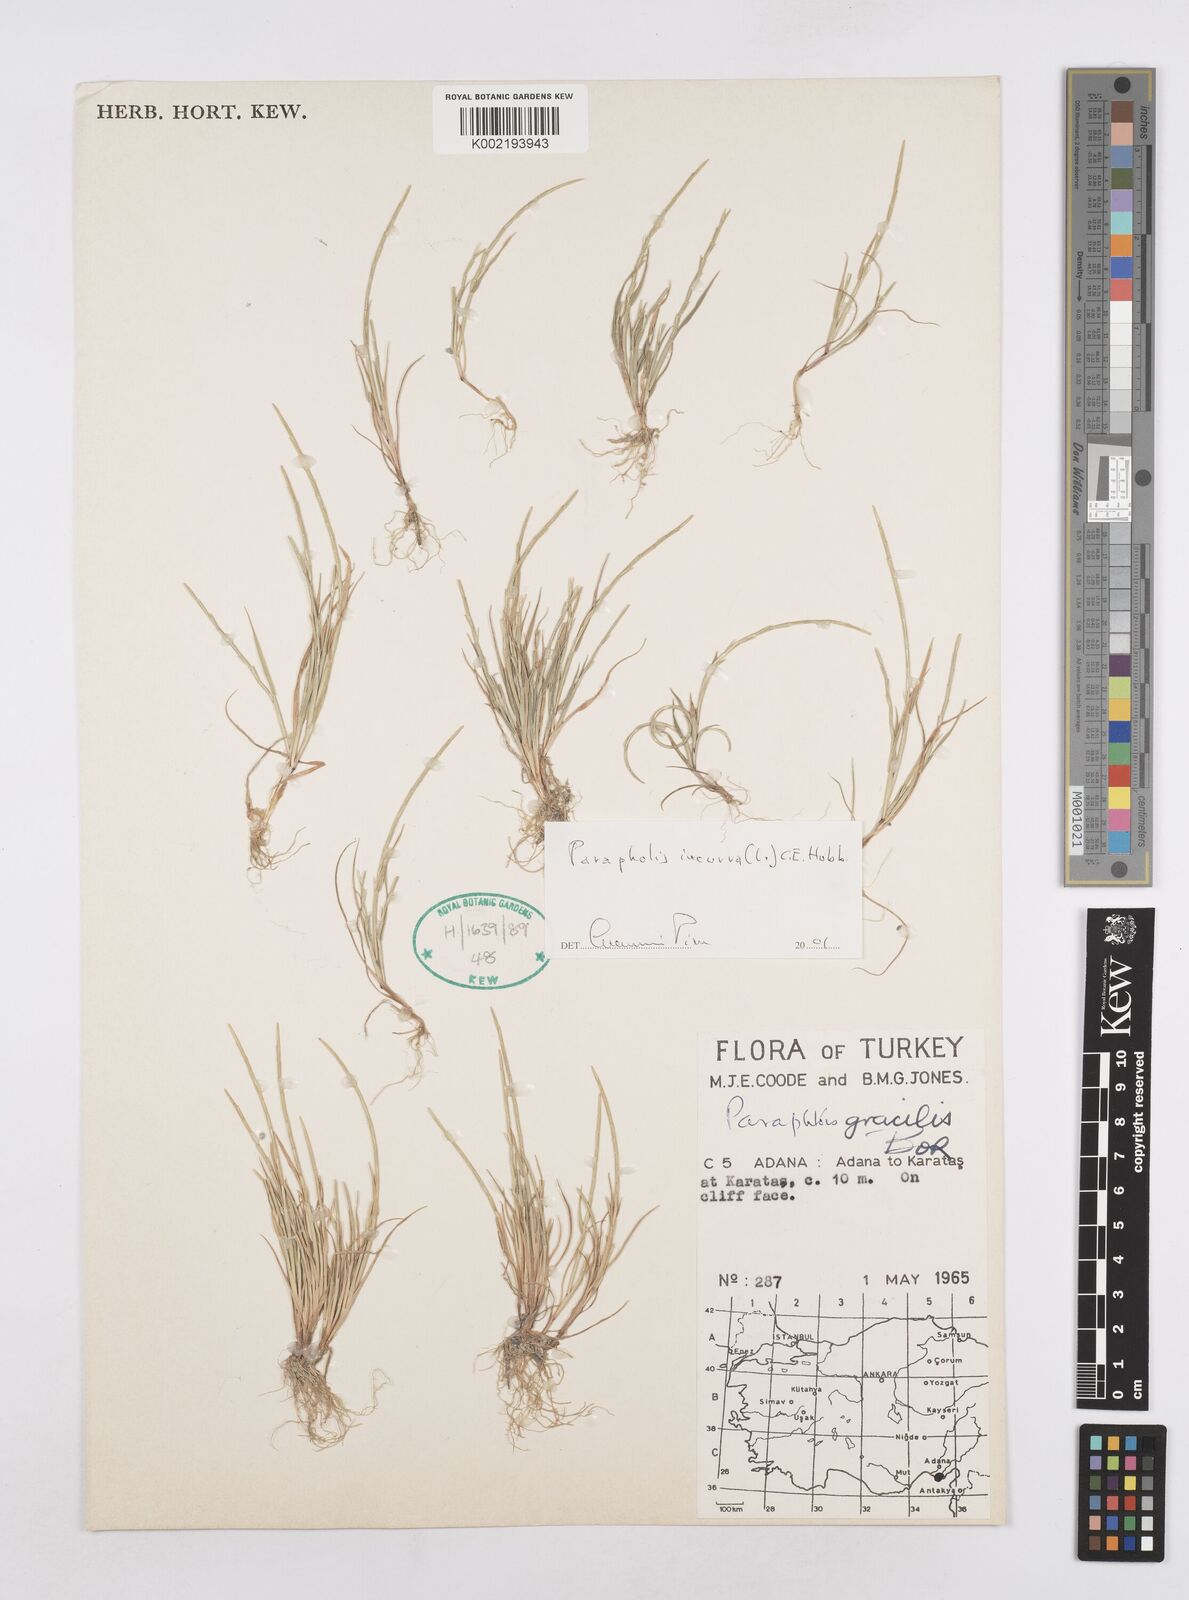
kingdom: Plantae
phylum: Tracheophyta
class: Liliopsida
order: Poales
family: Poaceae
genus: Parapholis
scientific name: Parapholis gracilis
